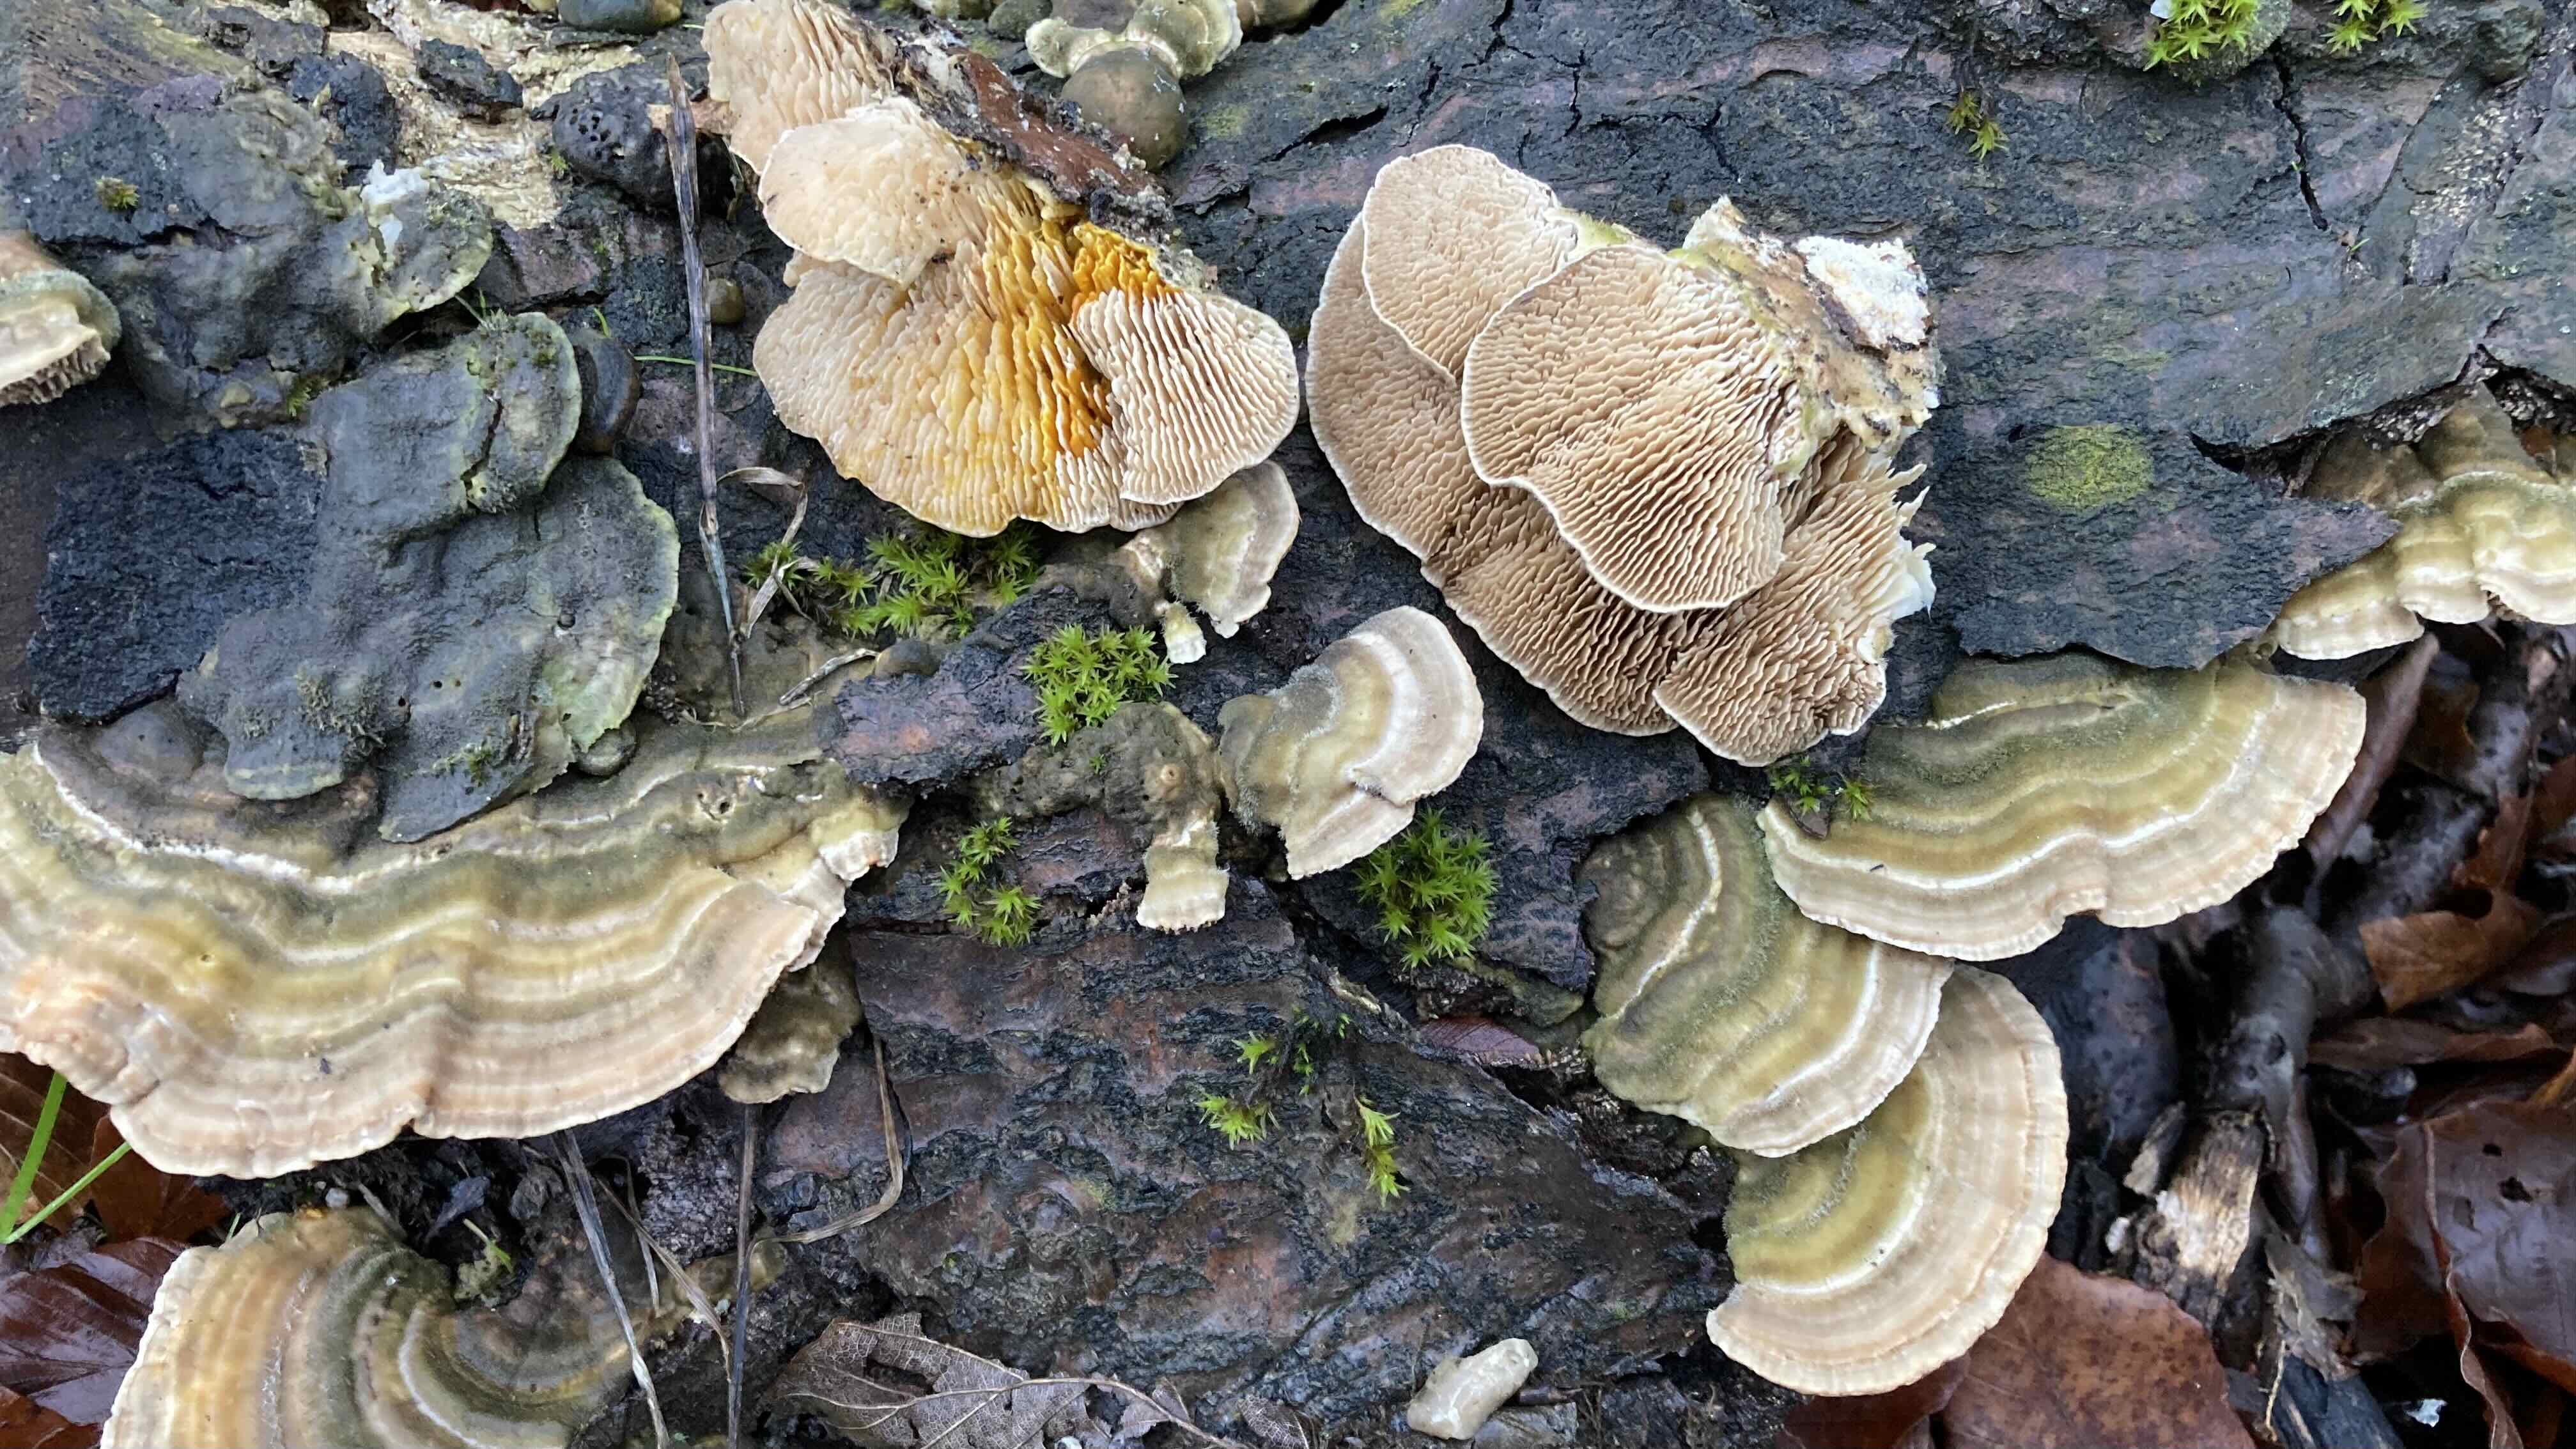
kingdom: Fungi
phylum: Basidiomycota
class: Agaricomycetes
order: Polyporales
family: Polyporaceae
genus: Lenzites
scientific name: Lenzites betulinus
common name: birke-læderporesvamp
